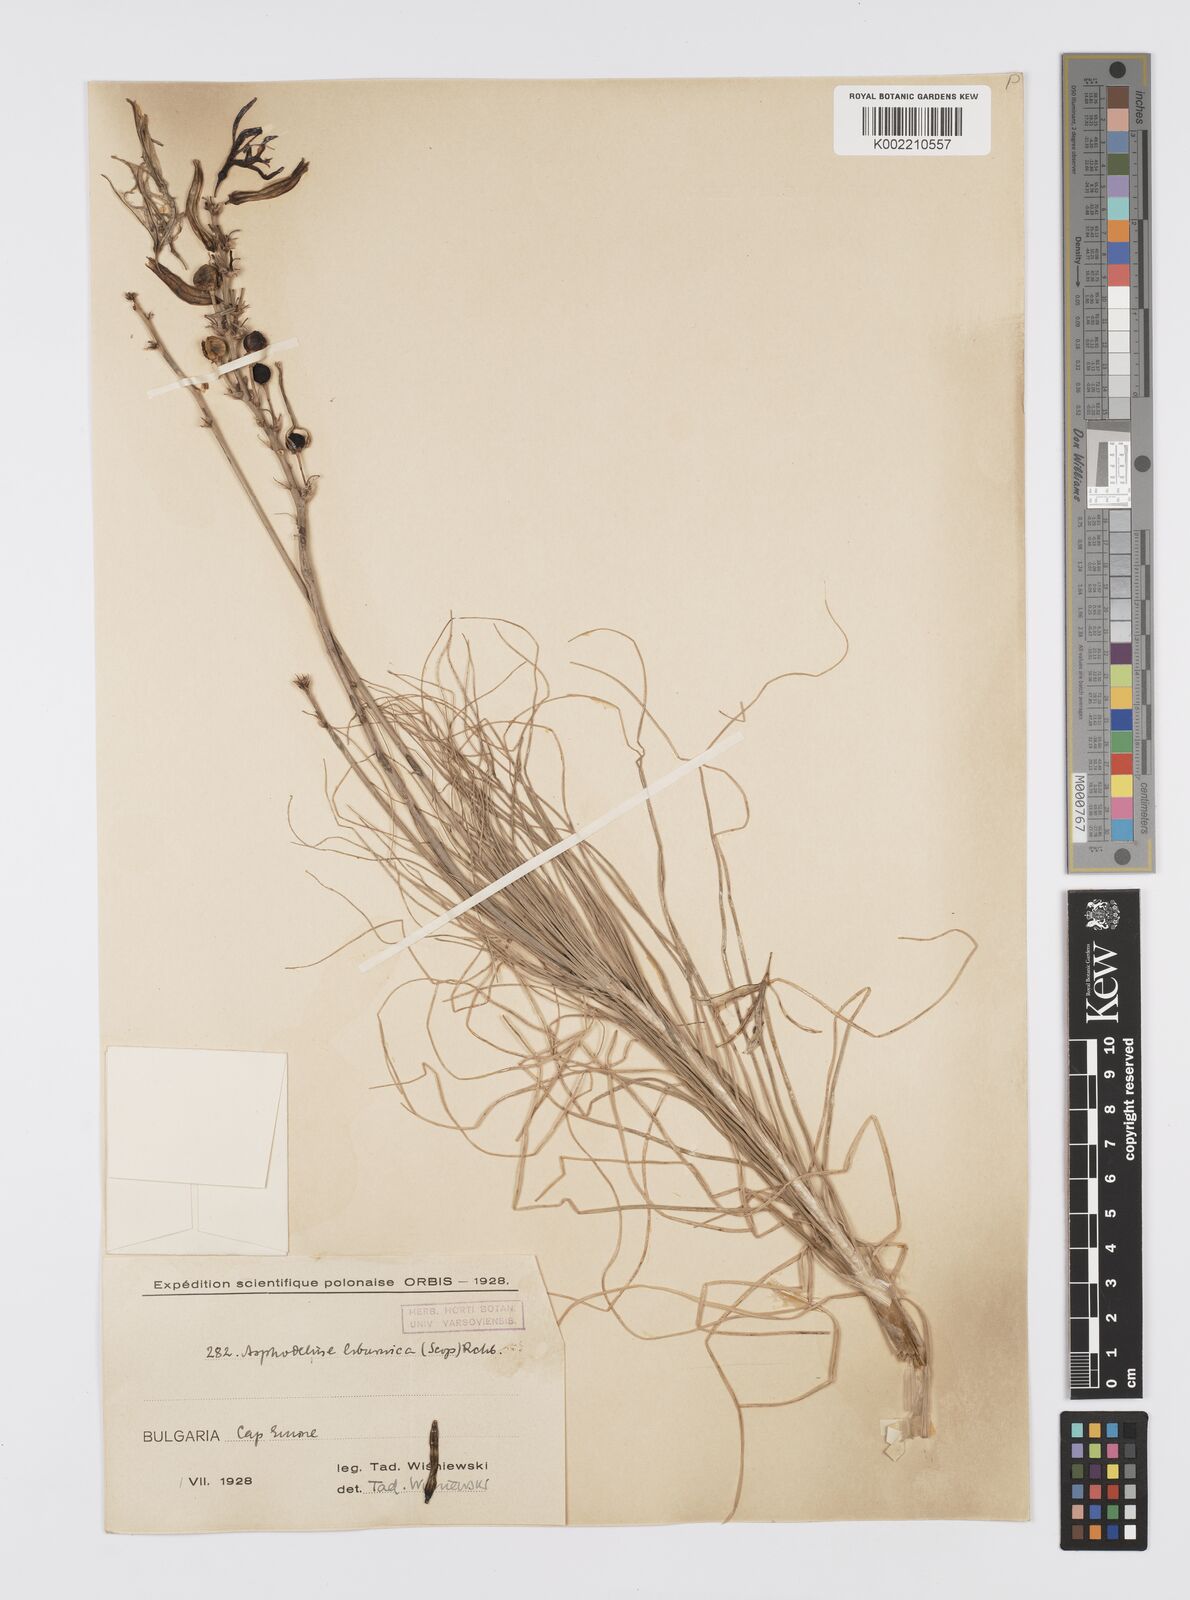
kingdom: Plantae
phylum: Tracheophyta
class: Liliopsida
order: Asparagales
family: Asphodelaceae
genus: Asphodeline
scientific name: Asphodeline liburnica
